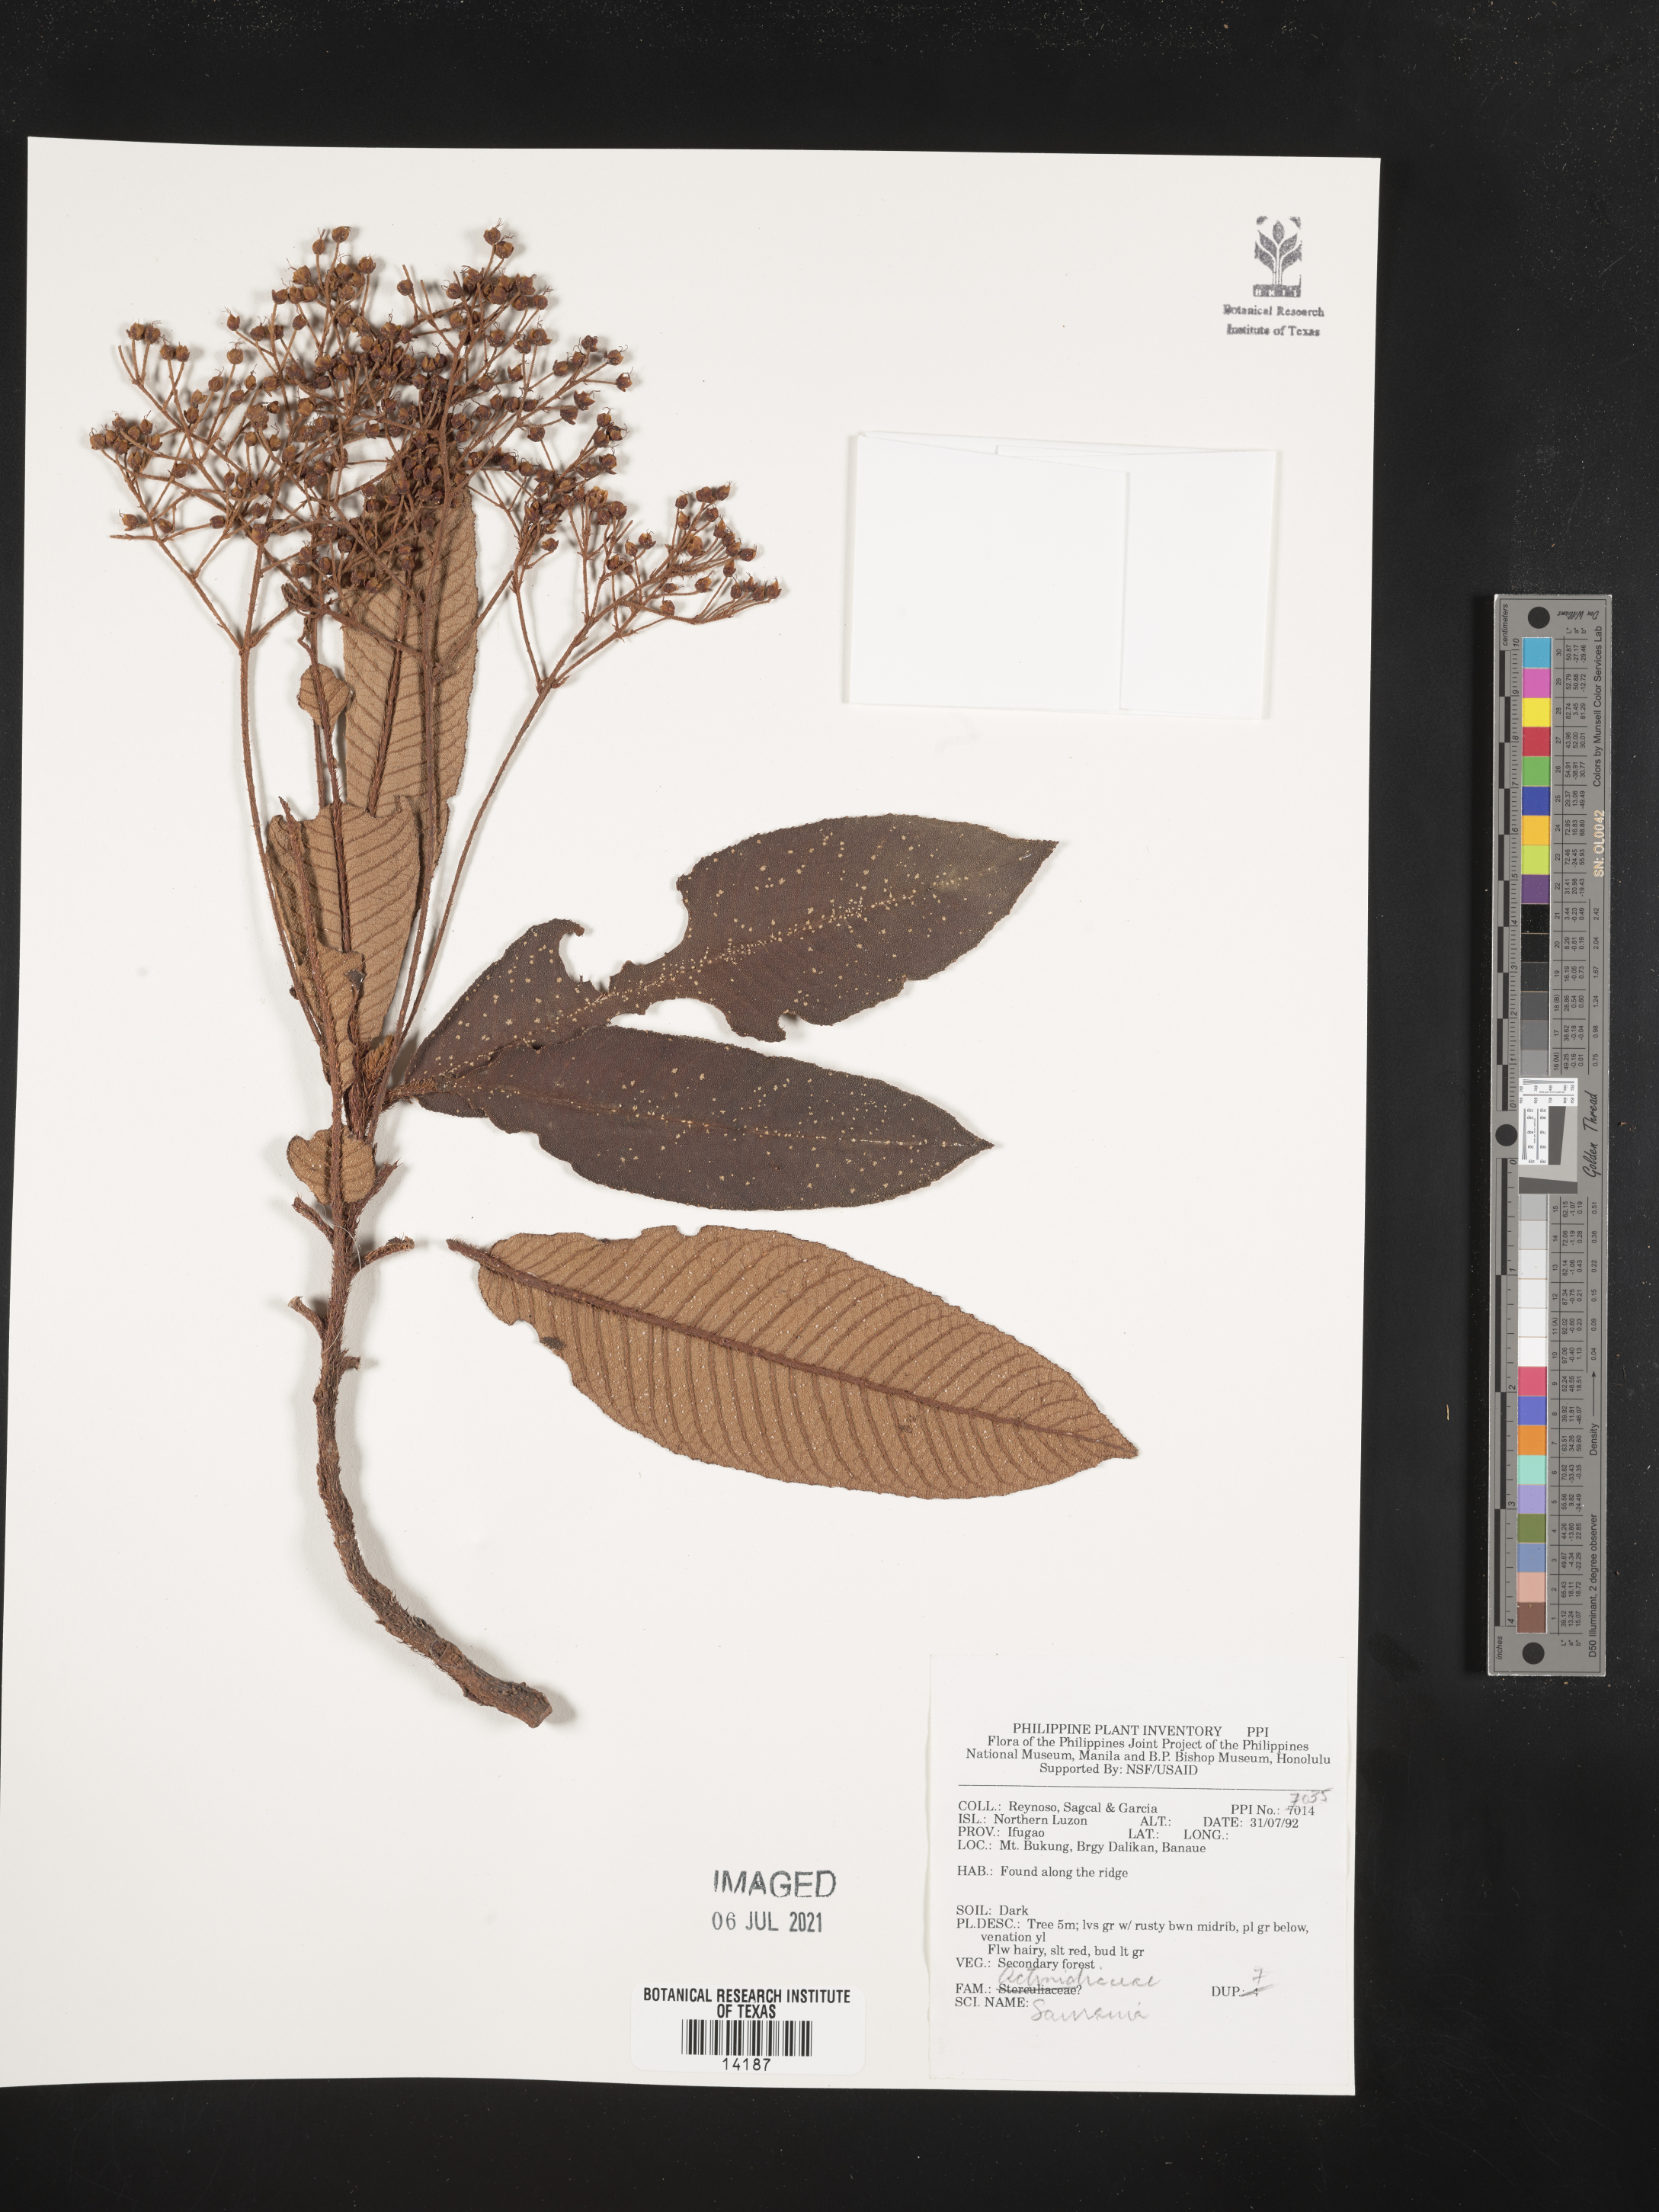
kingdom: Plantae
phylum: Tracheophyta
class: Magnoliopsida
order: Ericales
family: Actinidiaceae
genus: Saurauia
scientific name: Saurauia
